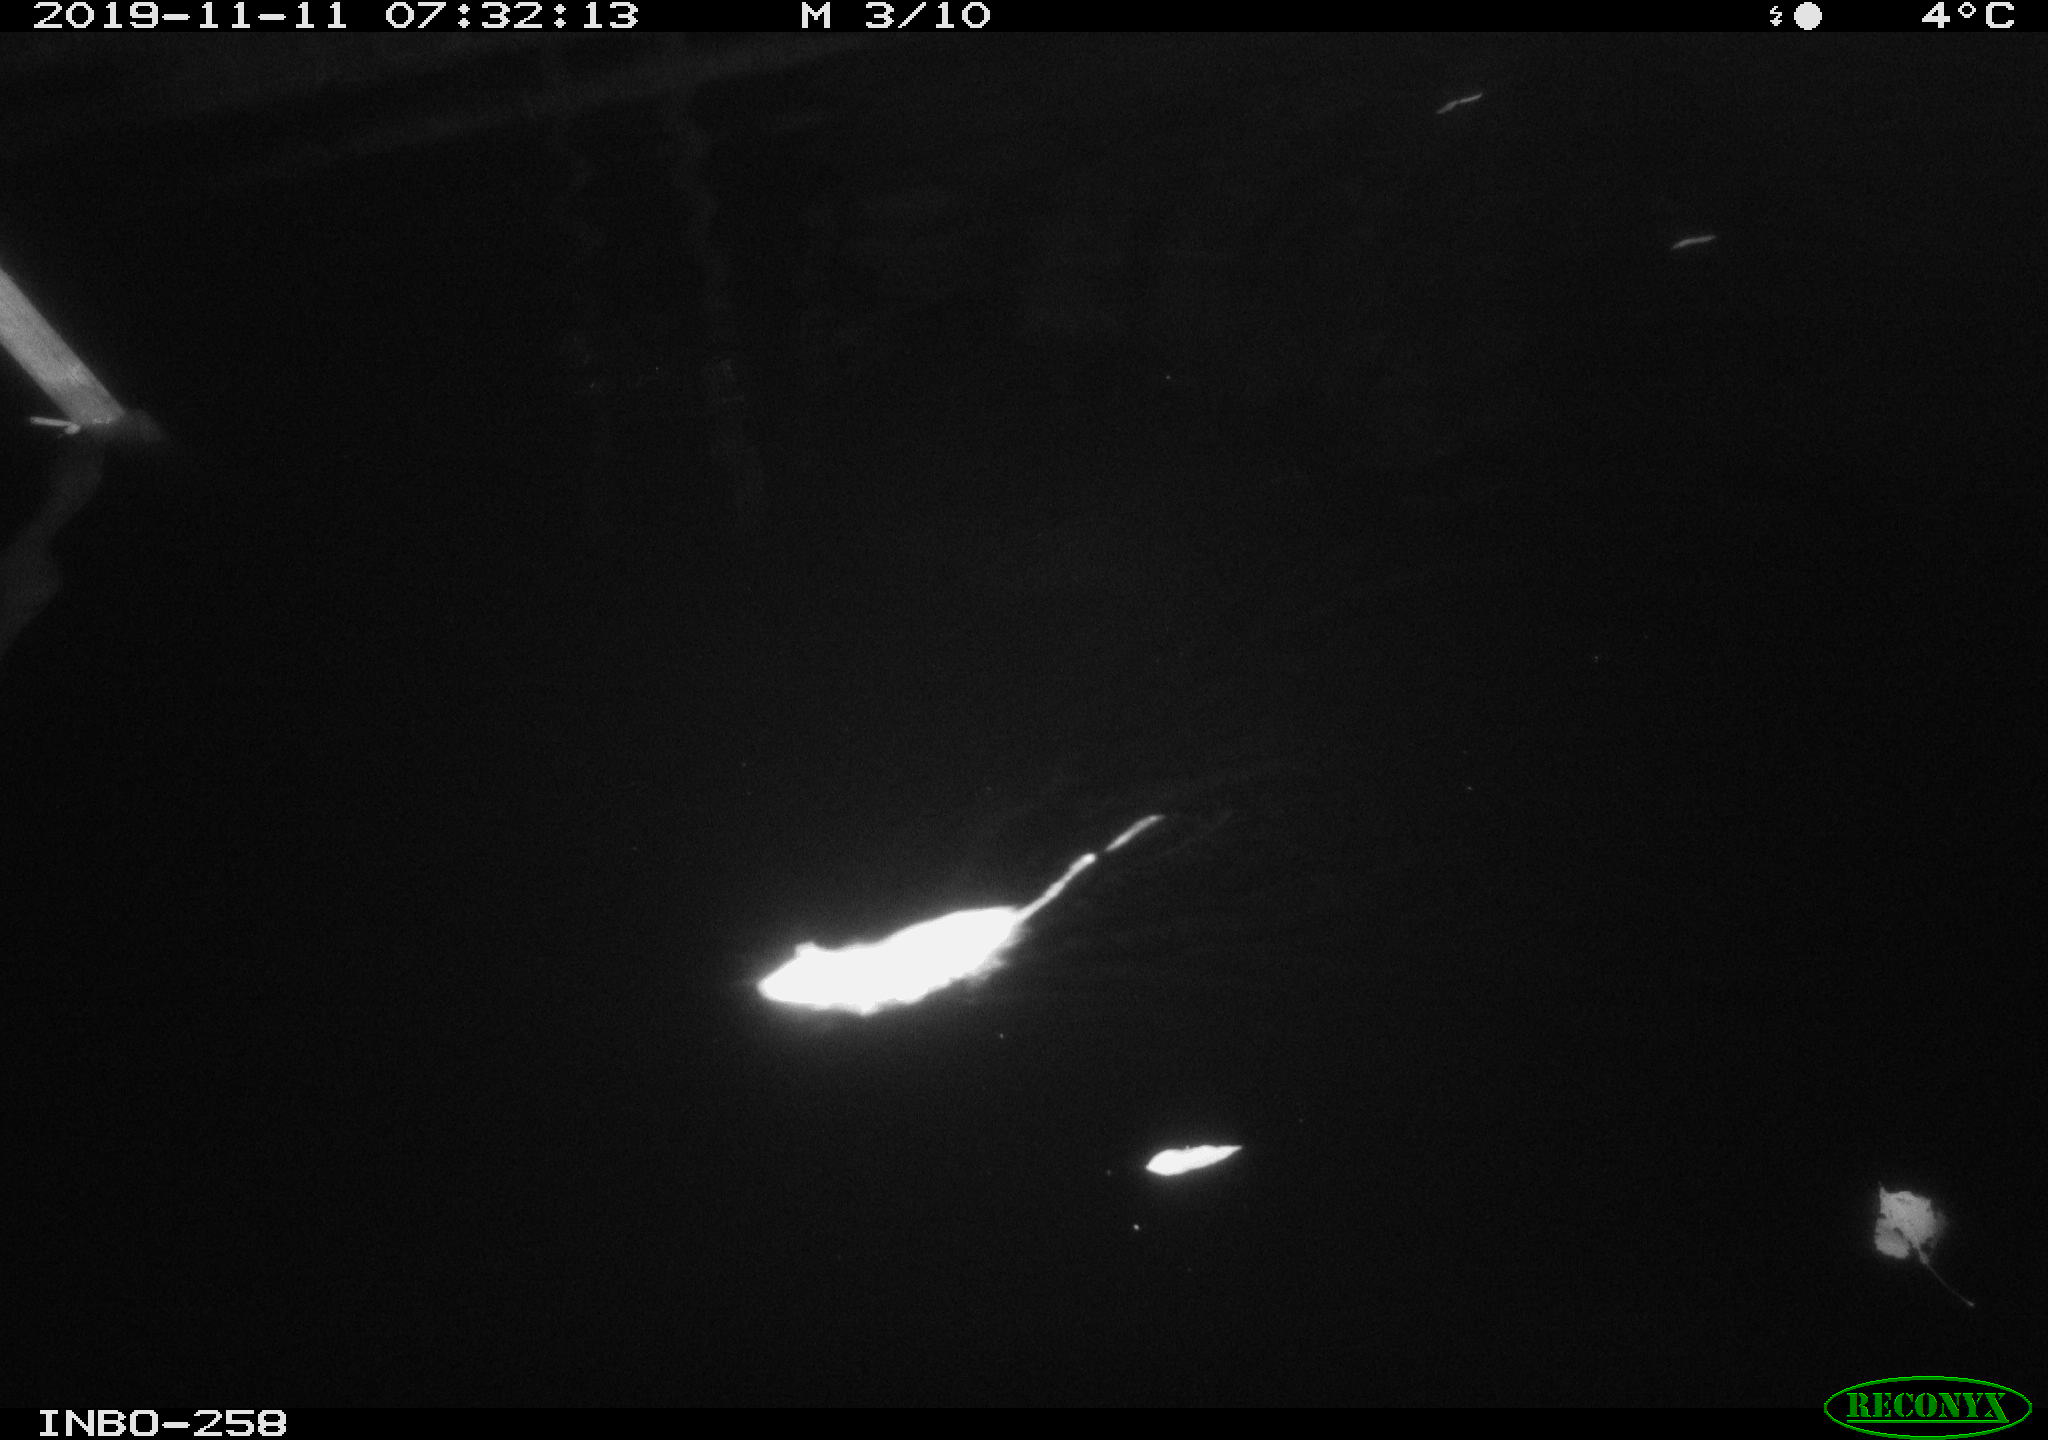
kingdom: Animalia
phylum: Chordata
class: Mammalia
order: Rodentia
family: Muridae
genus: Rattus
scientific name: Rattus norvegicus
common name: Brown rat
